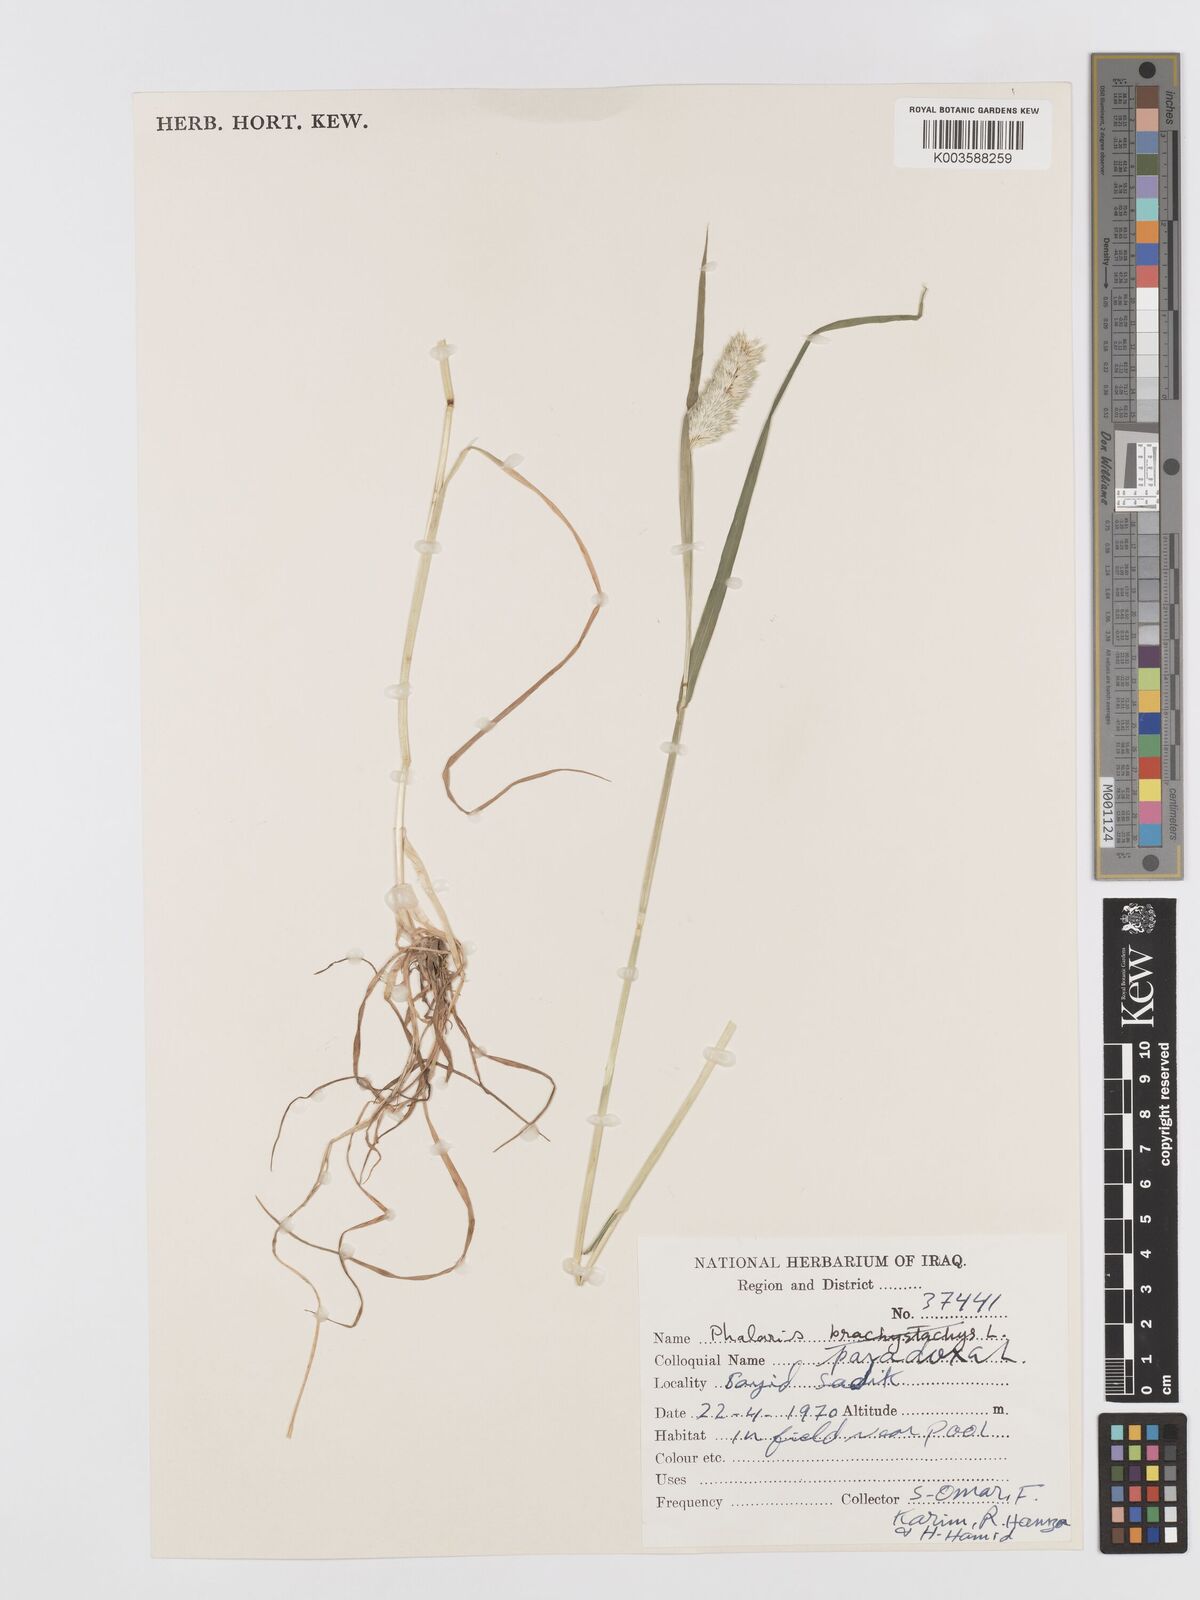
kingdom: Plantae
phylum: Tracheophyta
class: Liliopsida
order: Poales
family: Poaceae
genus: Phalaris
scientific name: Phalaris paradoxa
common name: Awned canary-grass
